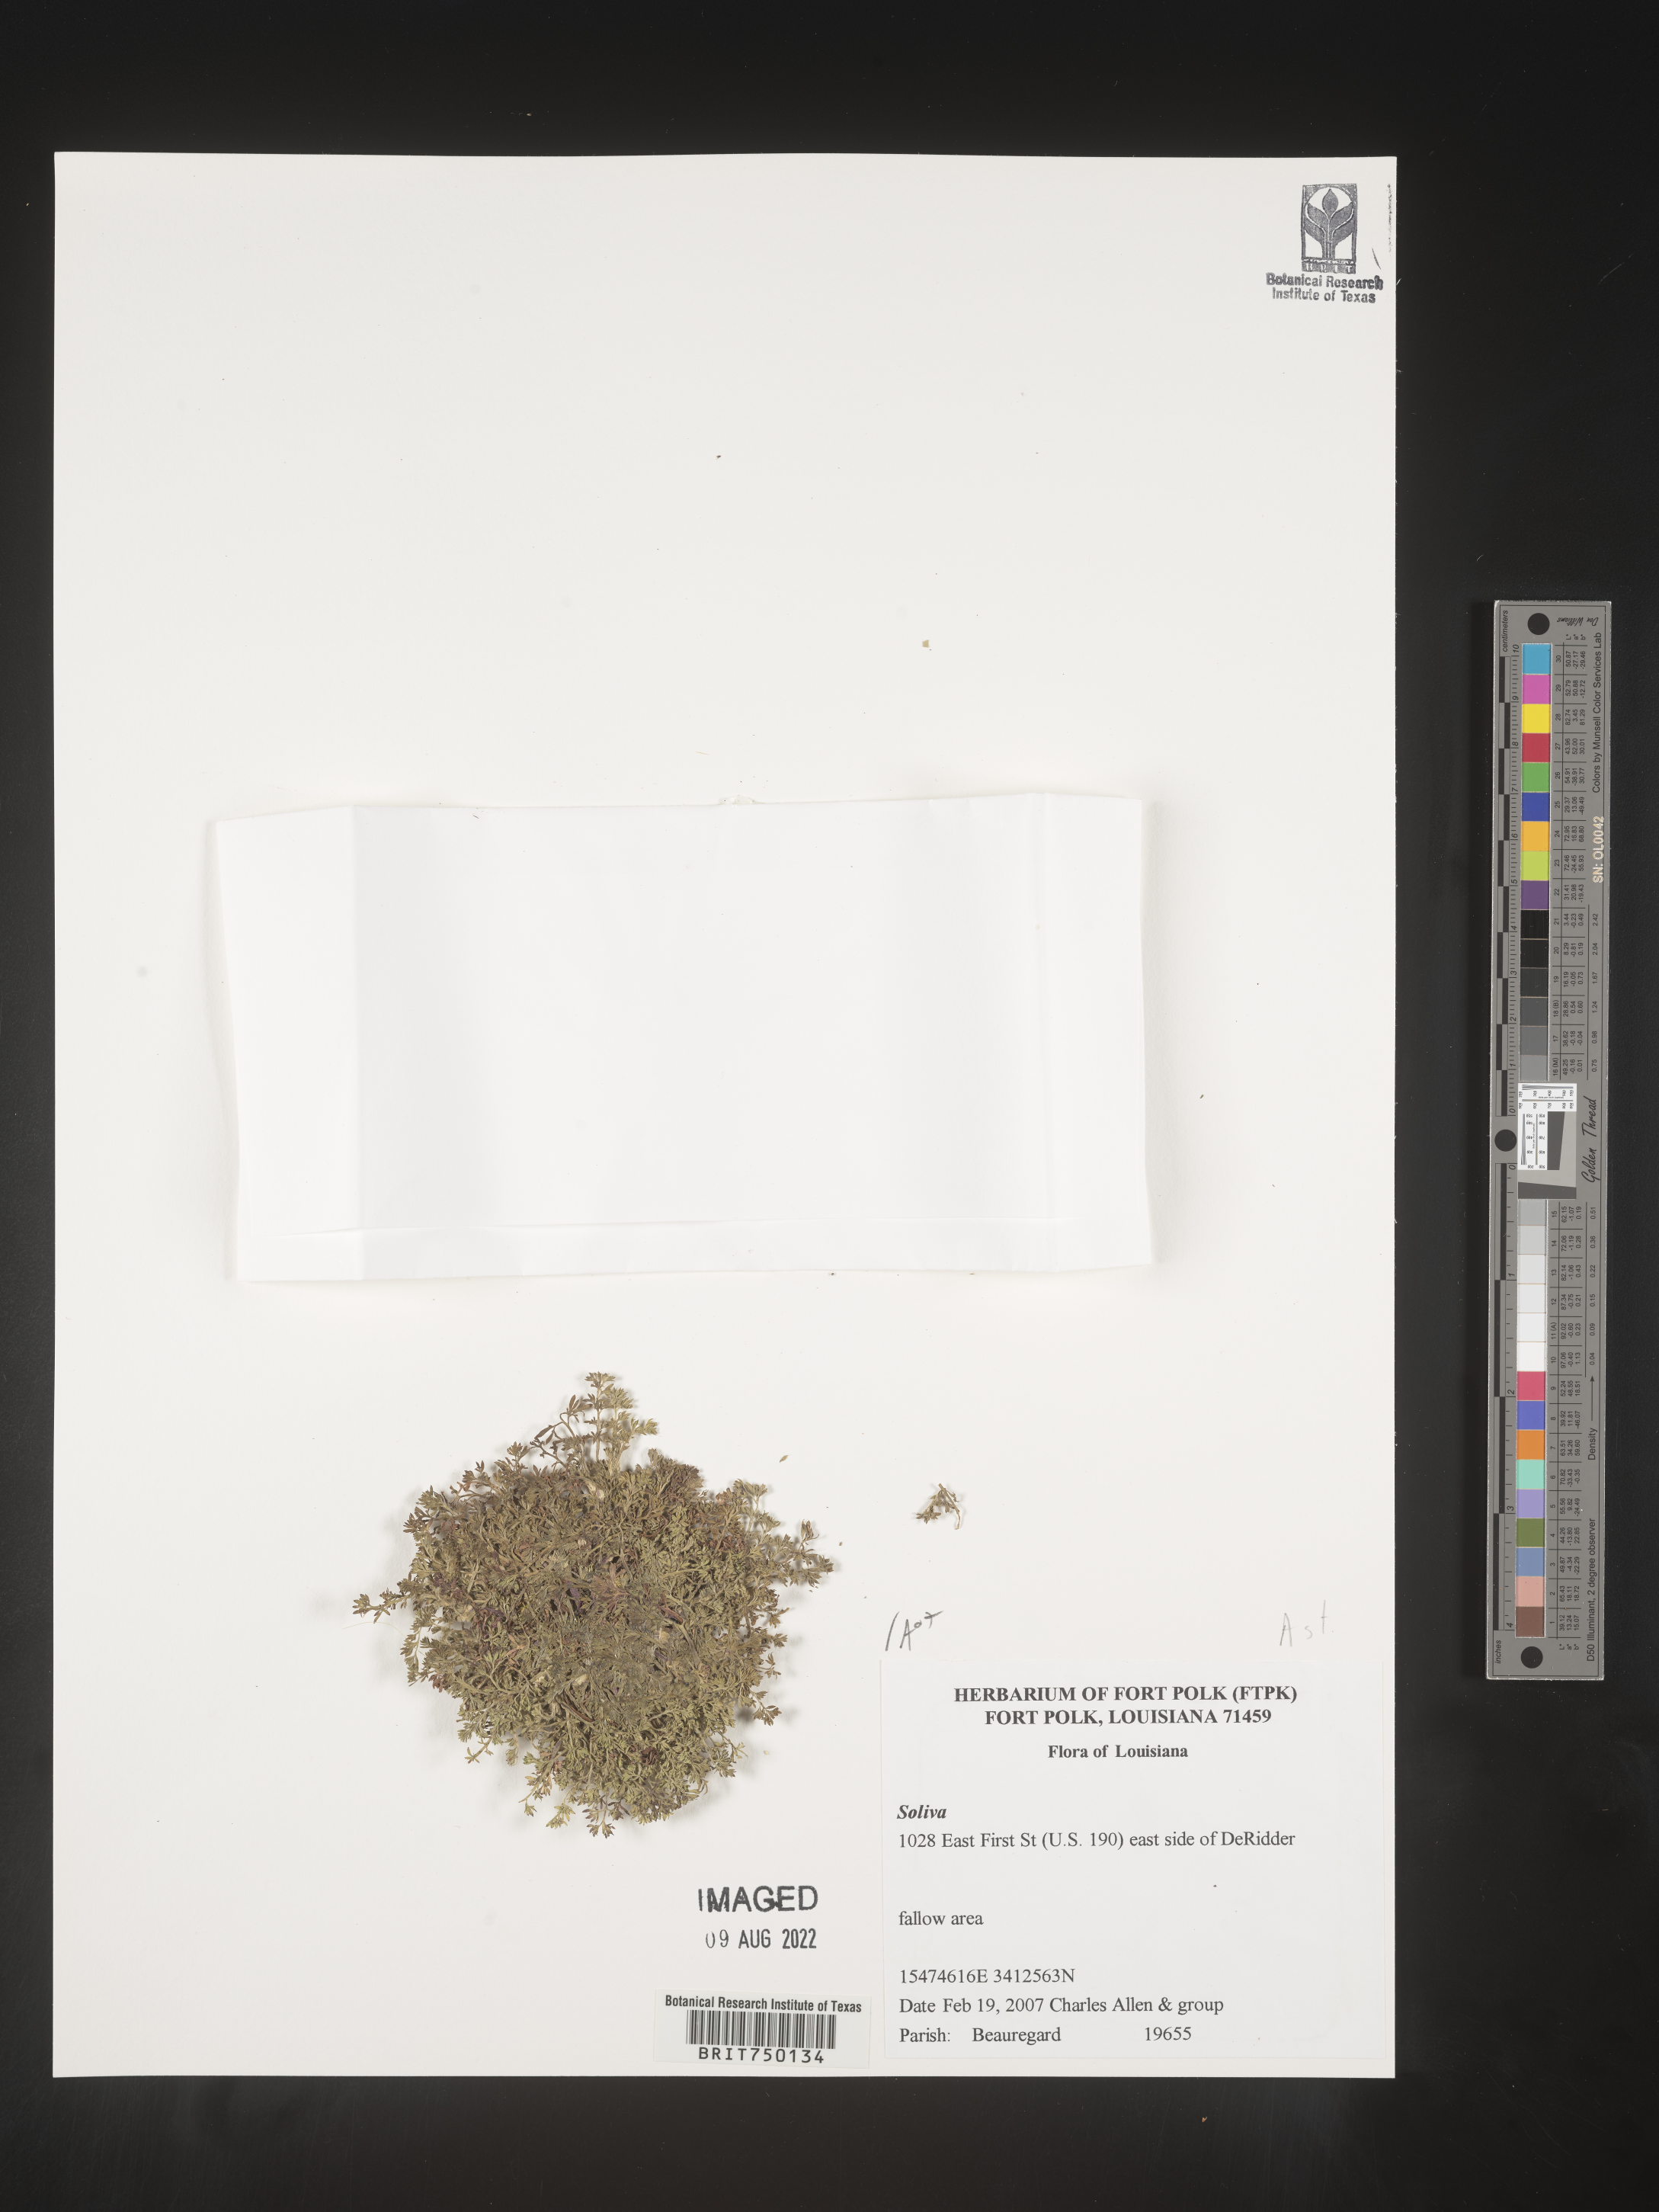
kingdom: Plantae
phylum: Tracheophyta
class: Magnoliopsida
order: Asterales
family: Asteraceae
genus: Soliva
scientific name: Soliva
